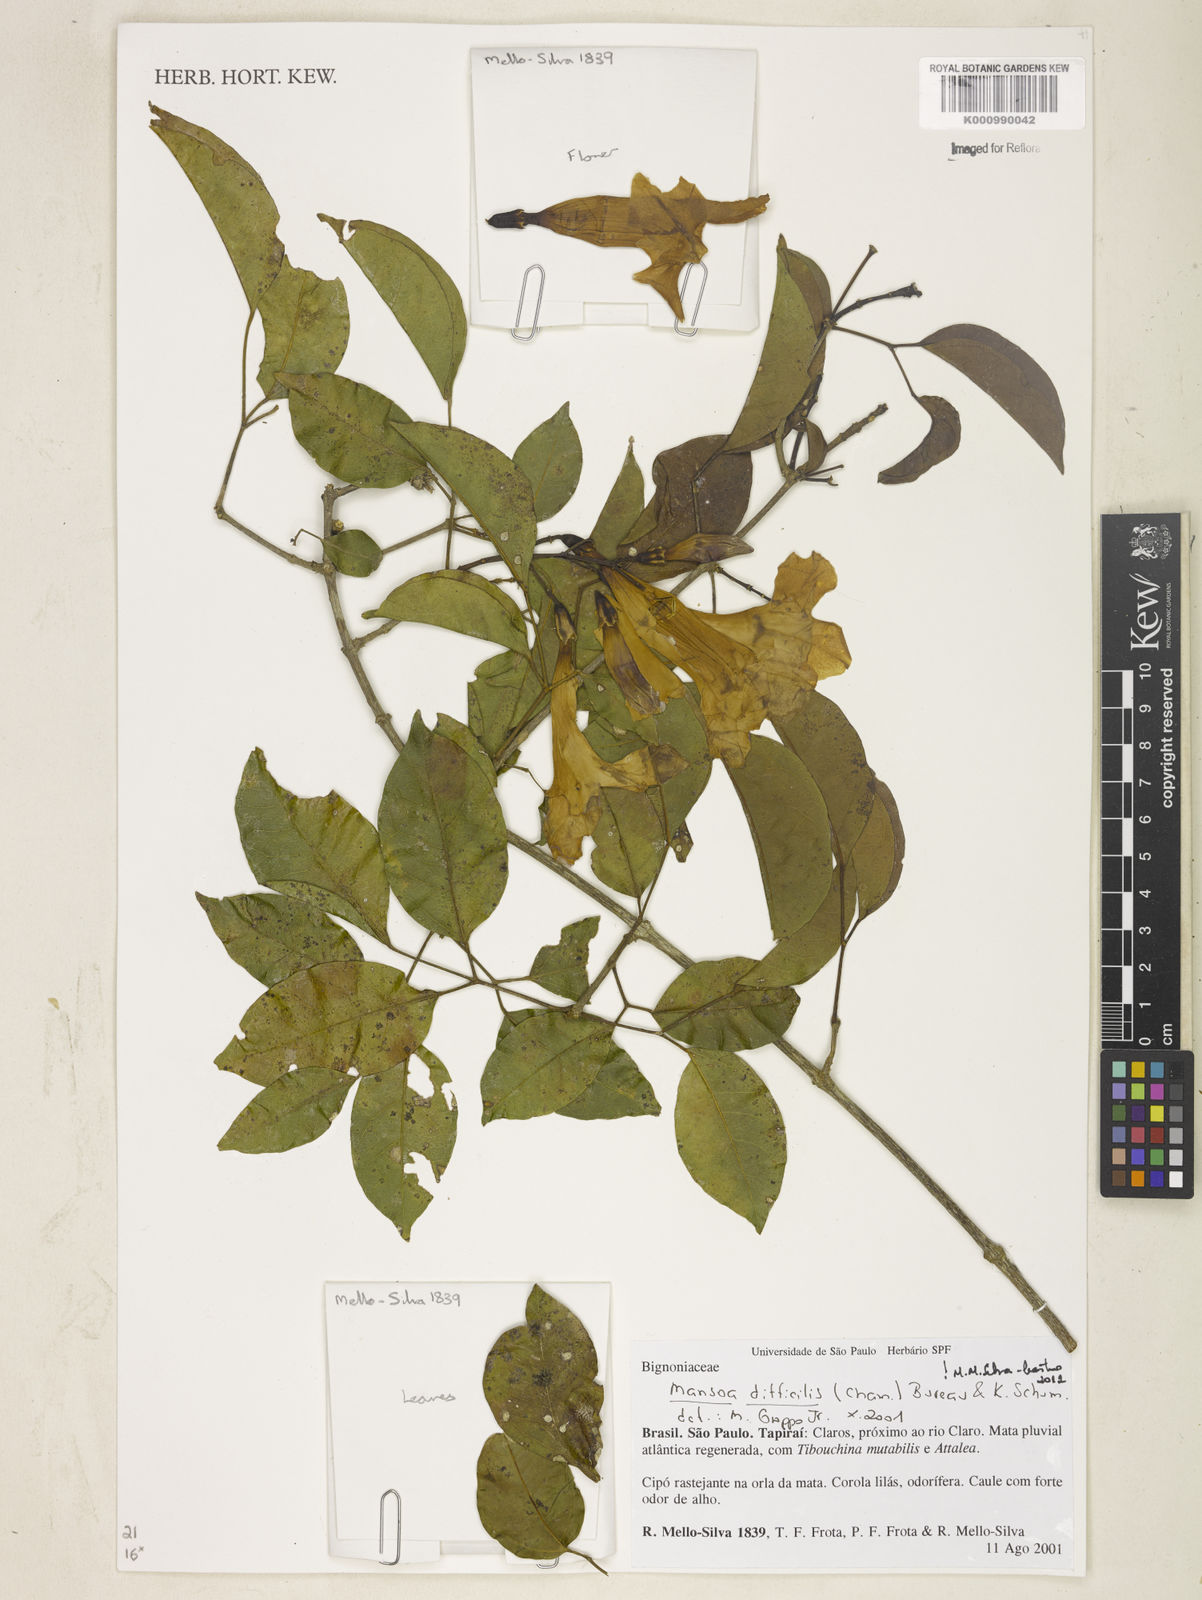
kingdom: Plantae
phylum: Tracheophyta
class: Magnoliopsida
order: Lamiales
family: Bignoniaceae
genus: Mansoa
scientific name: Mansoa difficilis
